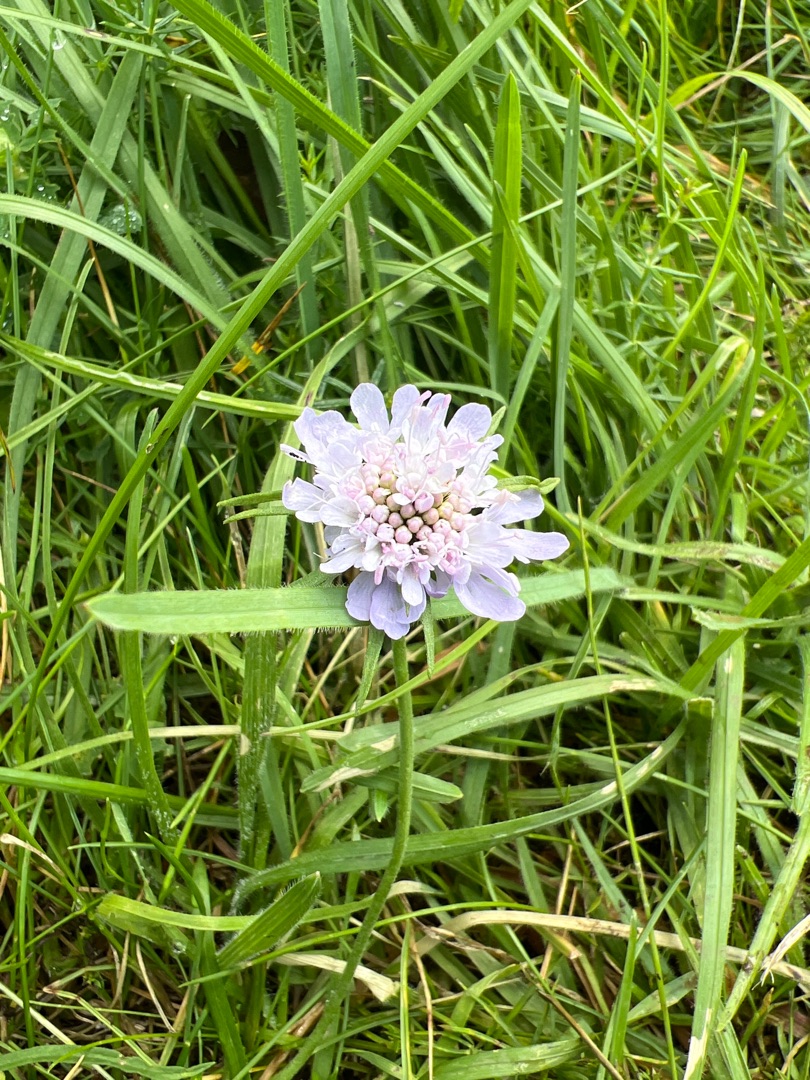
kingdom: Plantae
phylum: Tracheophyta
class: Magnoliopsida
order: Dipsacales
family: Caprifoliaceae
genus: Scabiosa
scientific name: Scabiosa columbaria
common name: Due-skabiose
